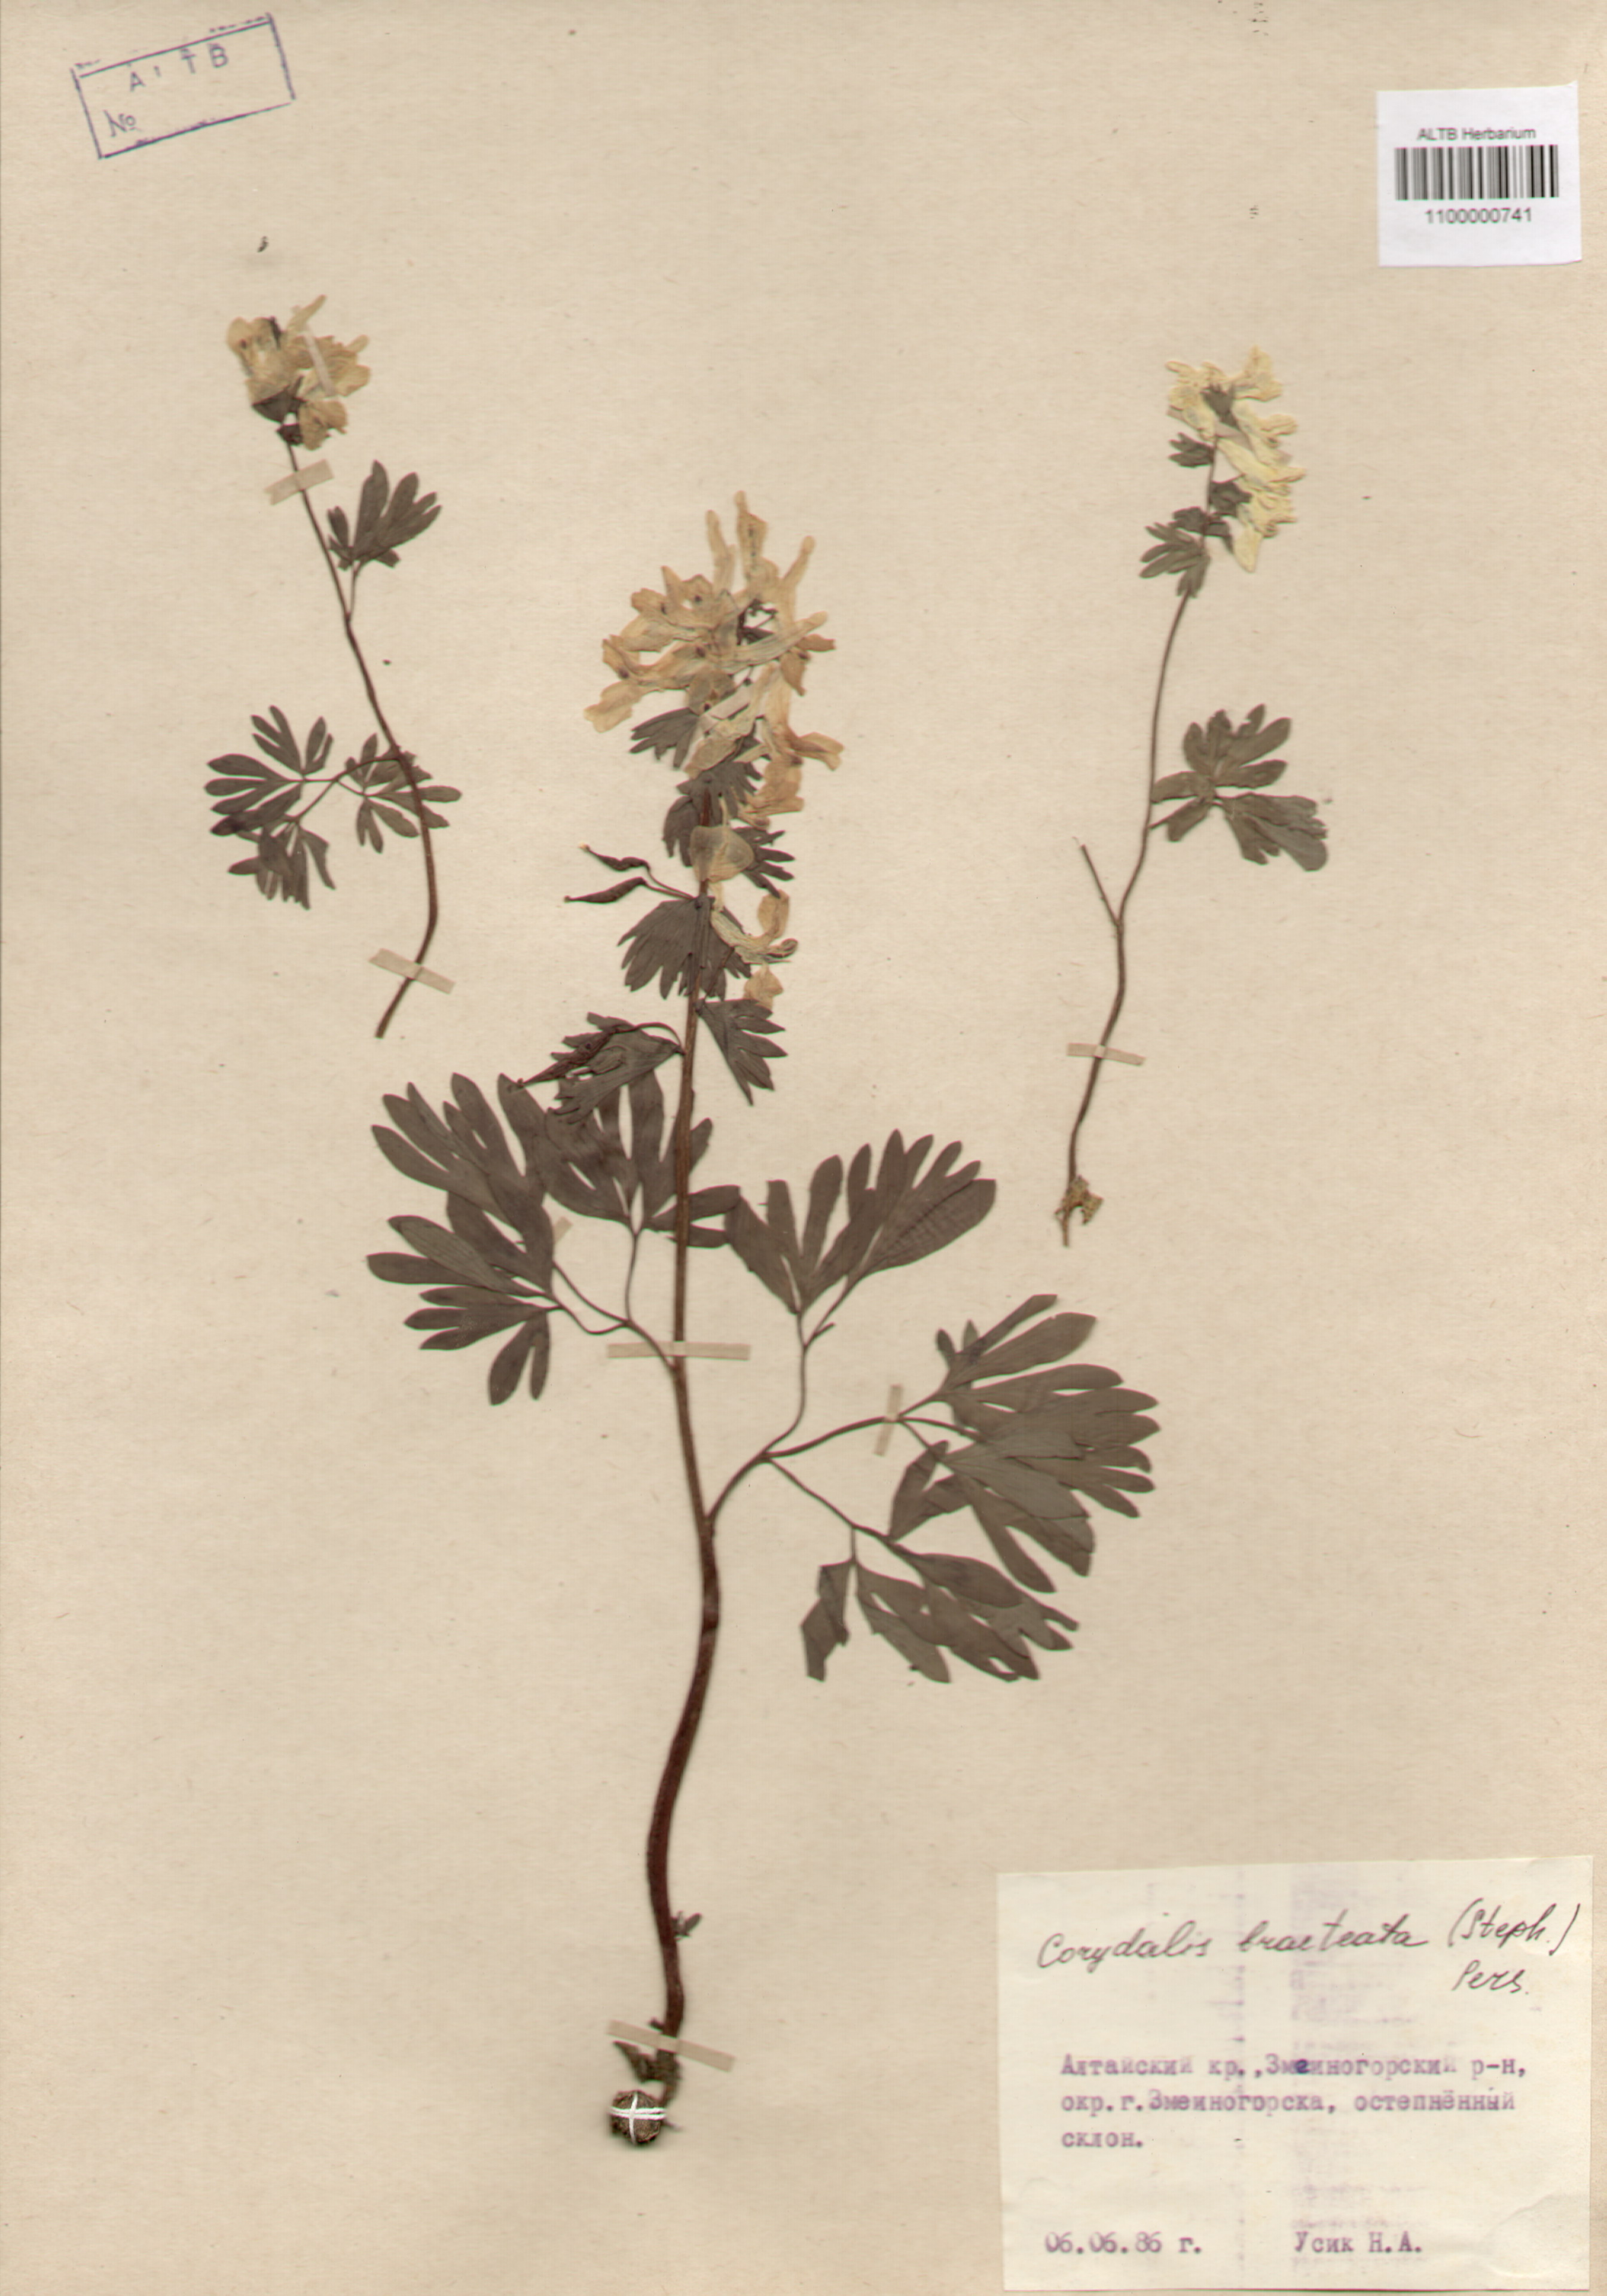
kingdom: Plantae
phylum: Tracheophyta
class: Magnoliopsida
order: Ranunculales
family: Papaveraceae
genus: Corydalis
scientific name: Corydalis bracteata
